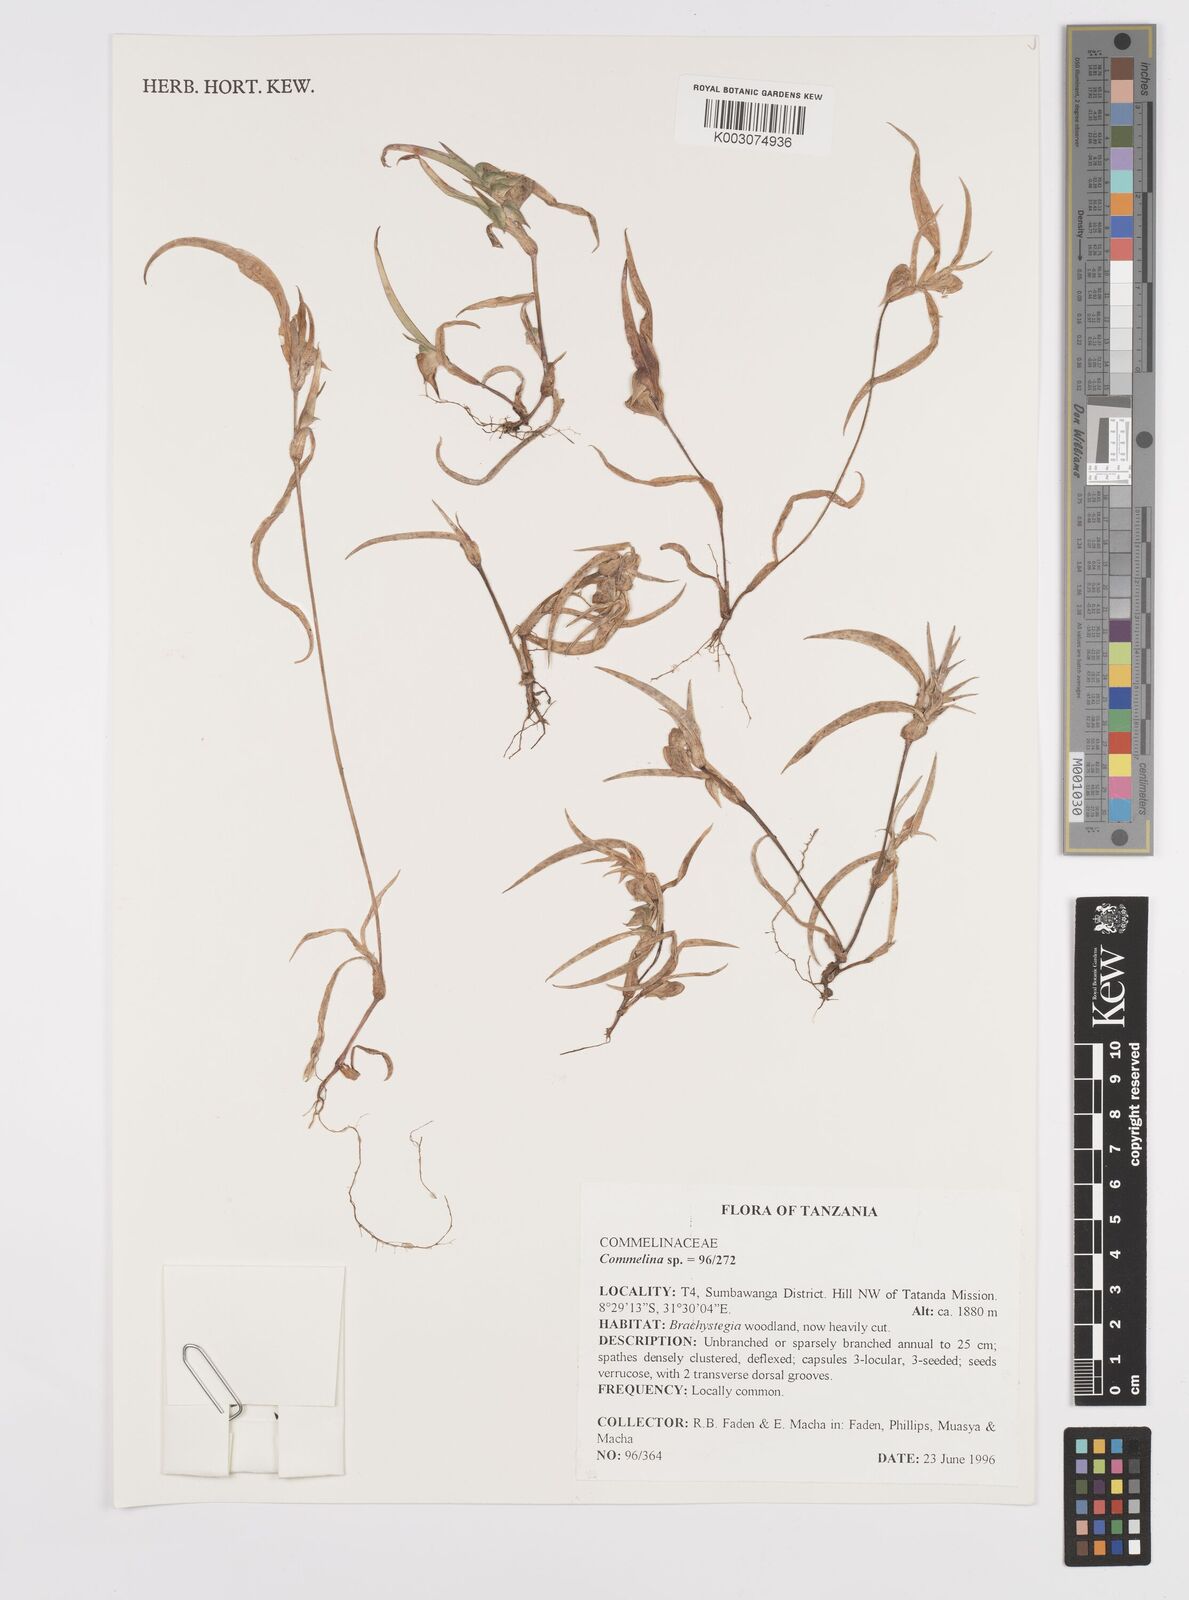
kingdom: Plantae
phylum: Tracheophyta
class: Liliopsida
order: Commelinales
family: Commelinaceae
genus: Commelina
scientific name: Commelina nigritana
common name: African dayflower
